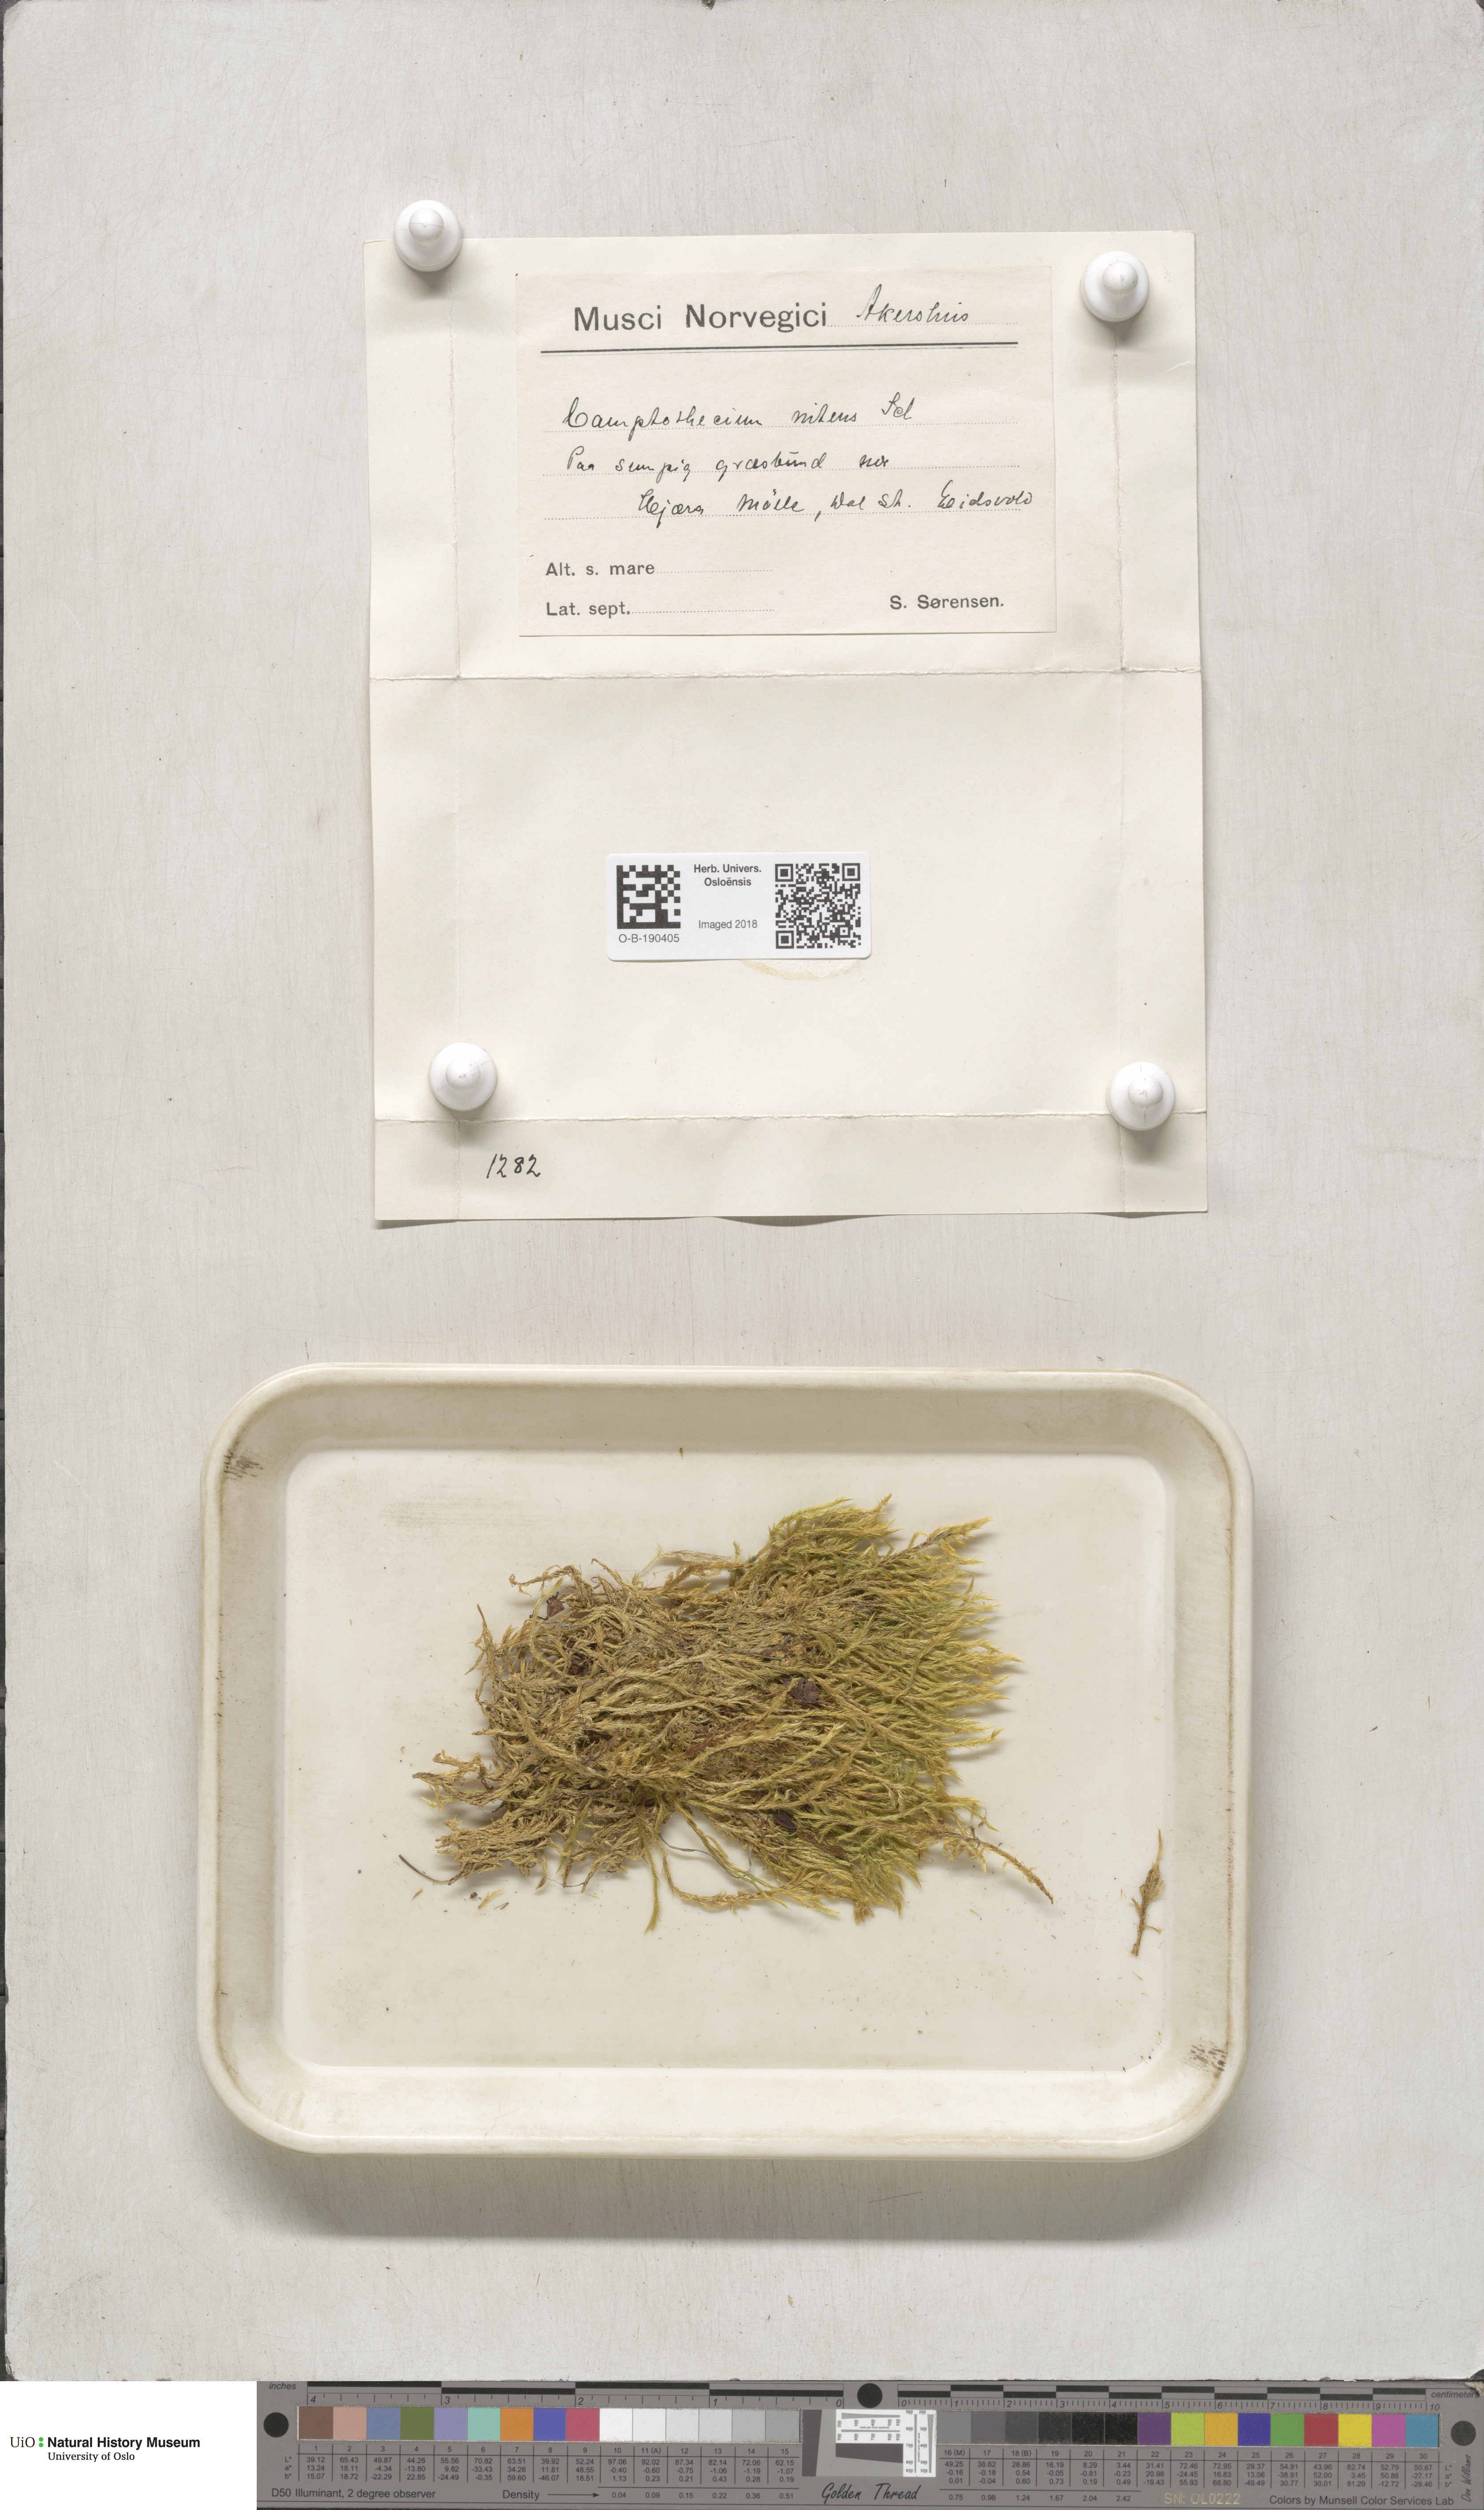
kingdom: Plantae
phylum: Bryophyta
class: Bryopsida
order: Hypnales
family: Amblystegiaceae
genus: Tomentypnum
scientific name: Tomentypnum nitens
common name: Golden fuzzy fen moss
